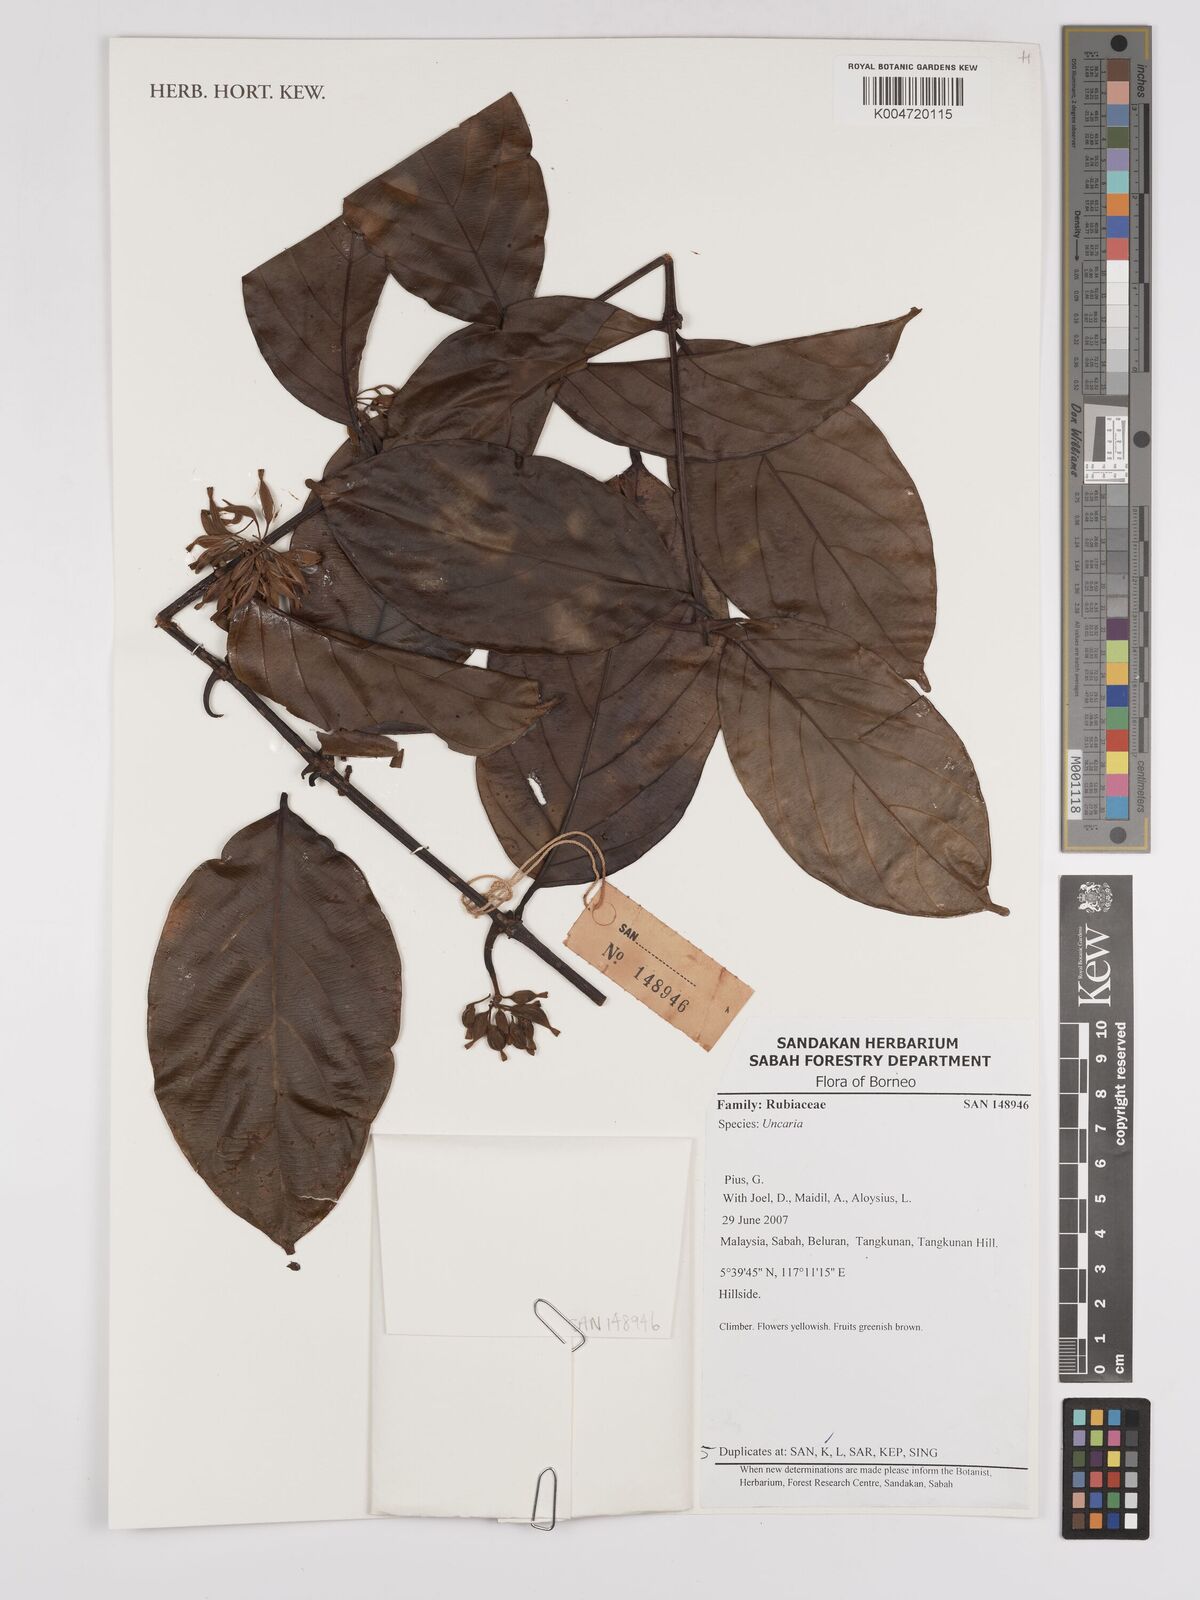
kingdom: Plantae
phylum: Tracheophyta
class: Magnoliopsida
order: Gentianales
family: Rubiaceae
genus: Uncaria
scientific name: Uncaria
